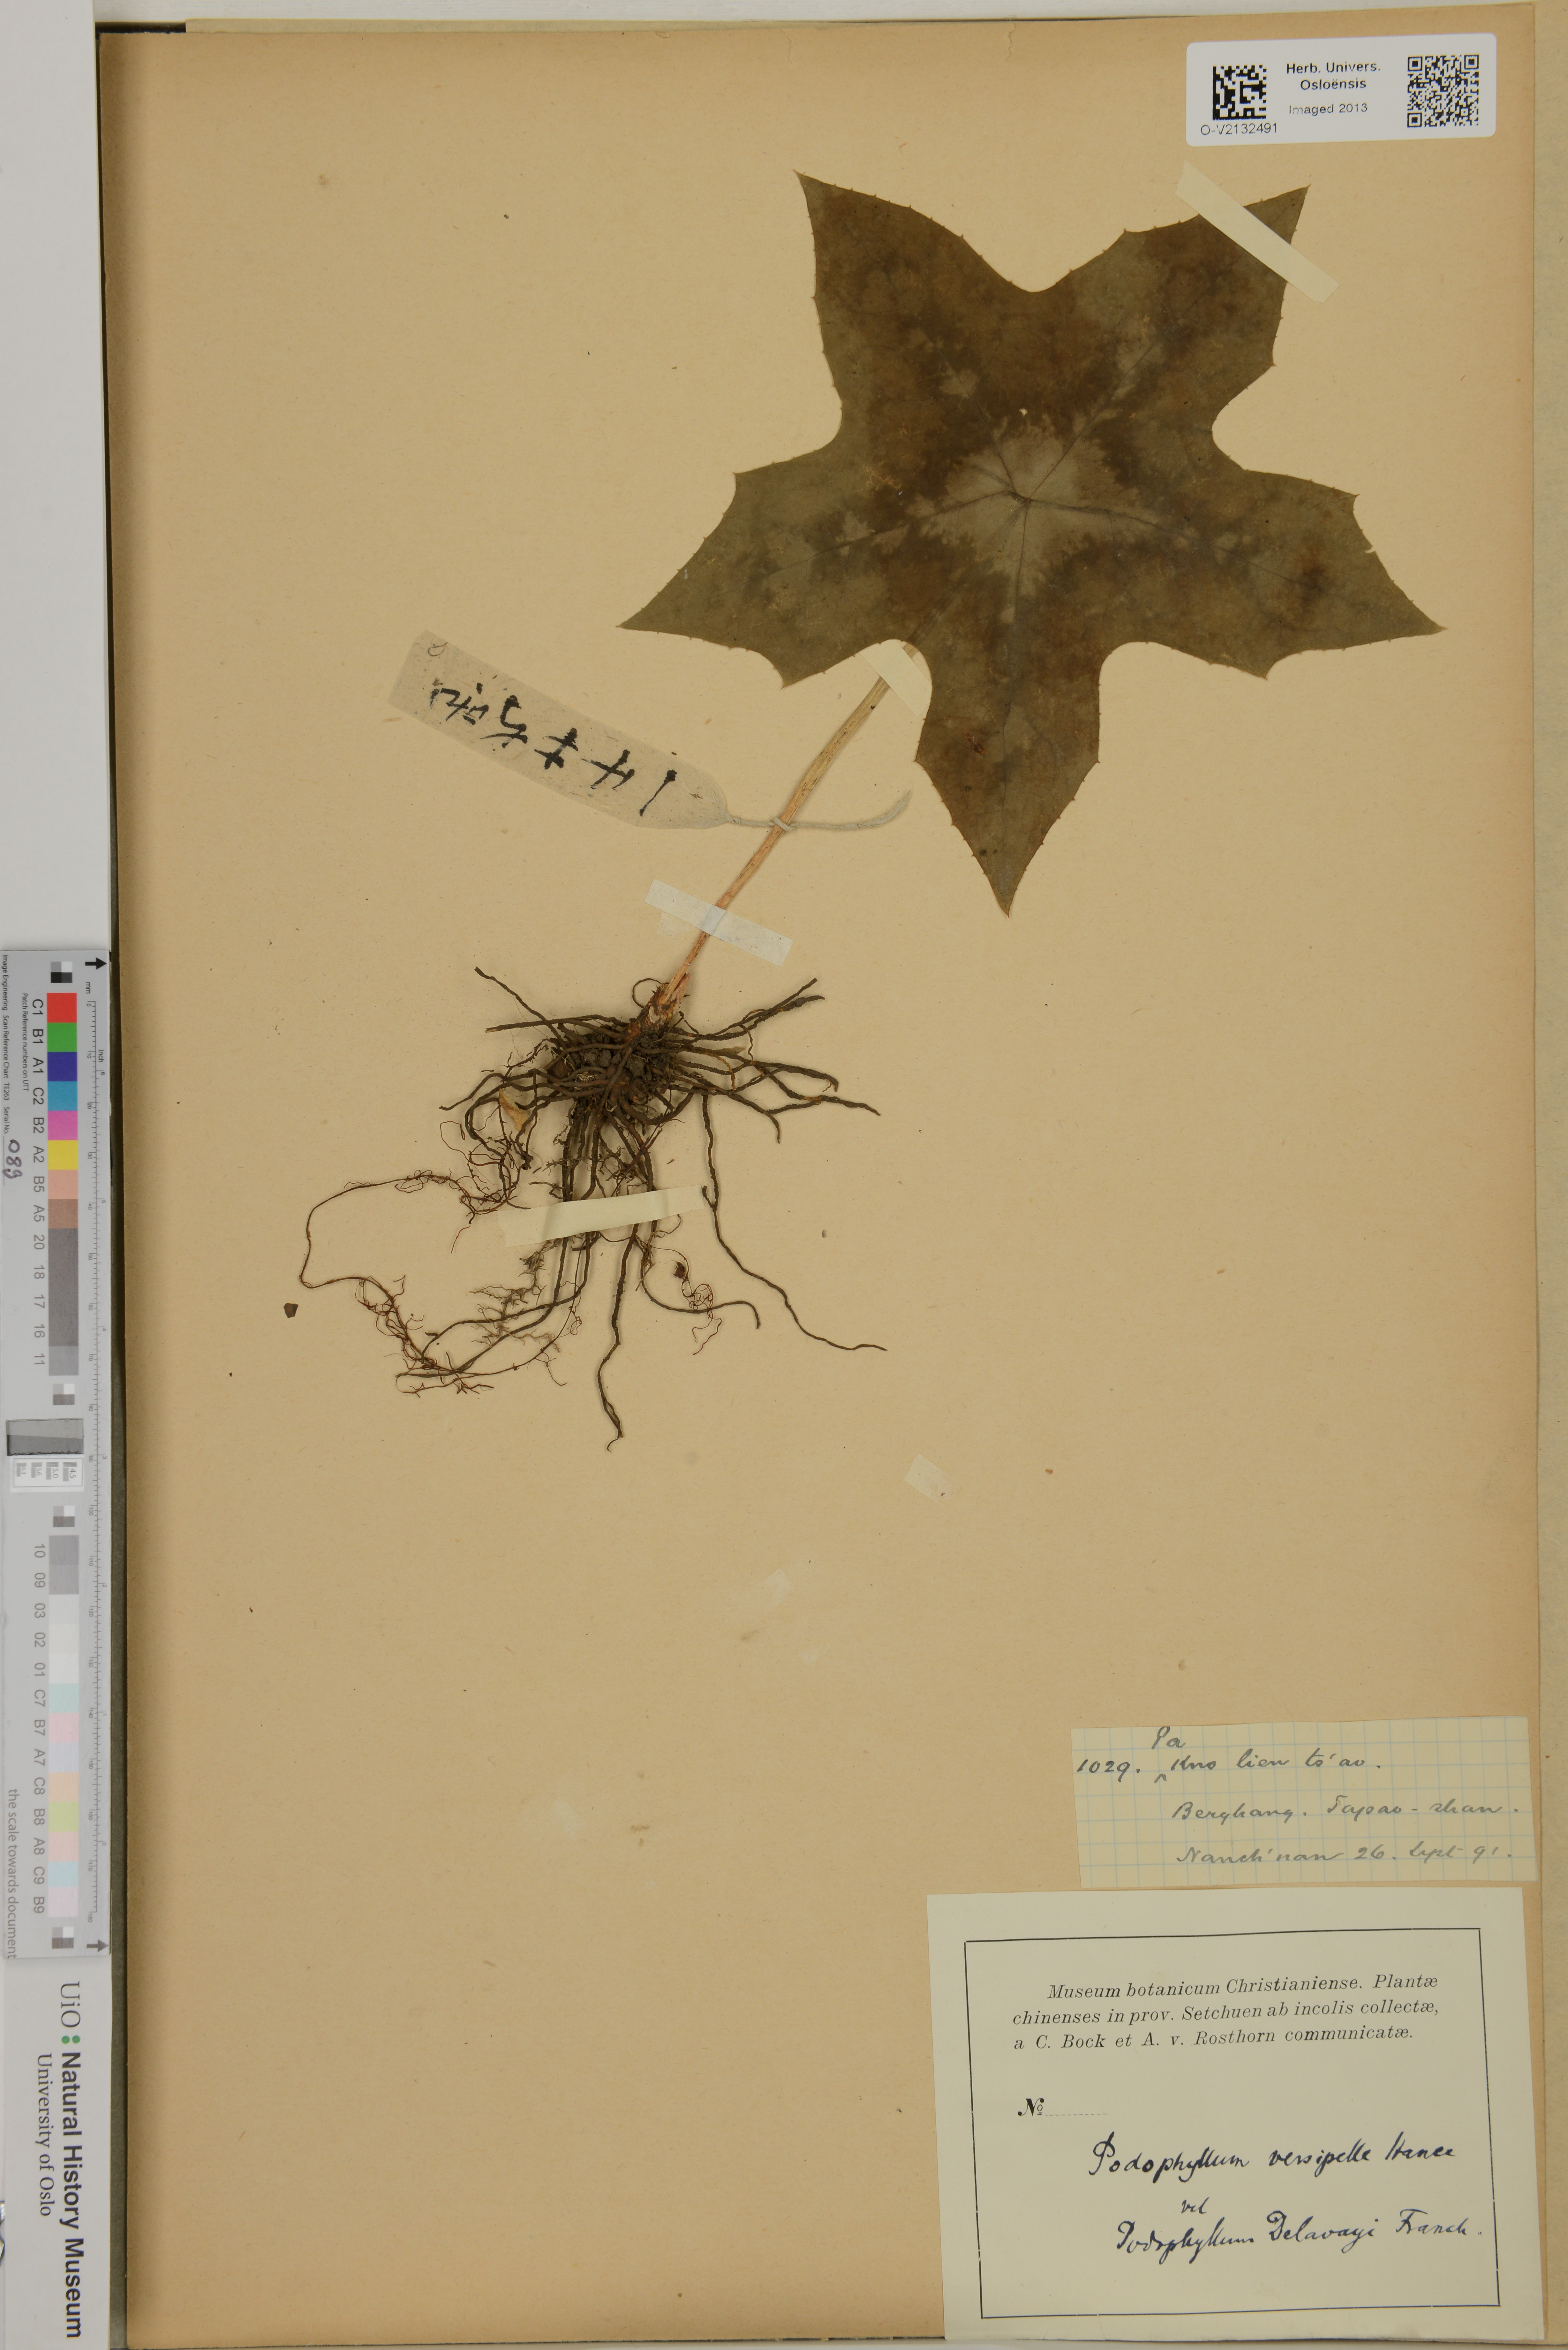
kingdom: Plantae
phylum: Tracheophyta
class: Magnoliopsida
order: Ranunculales
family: Berberidaceae
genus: Dysosma
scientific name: Dysosma versipellis
